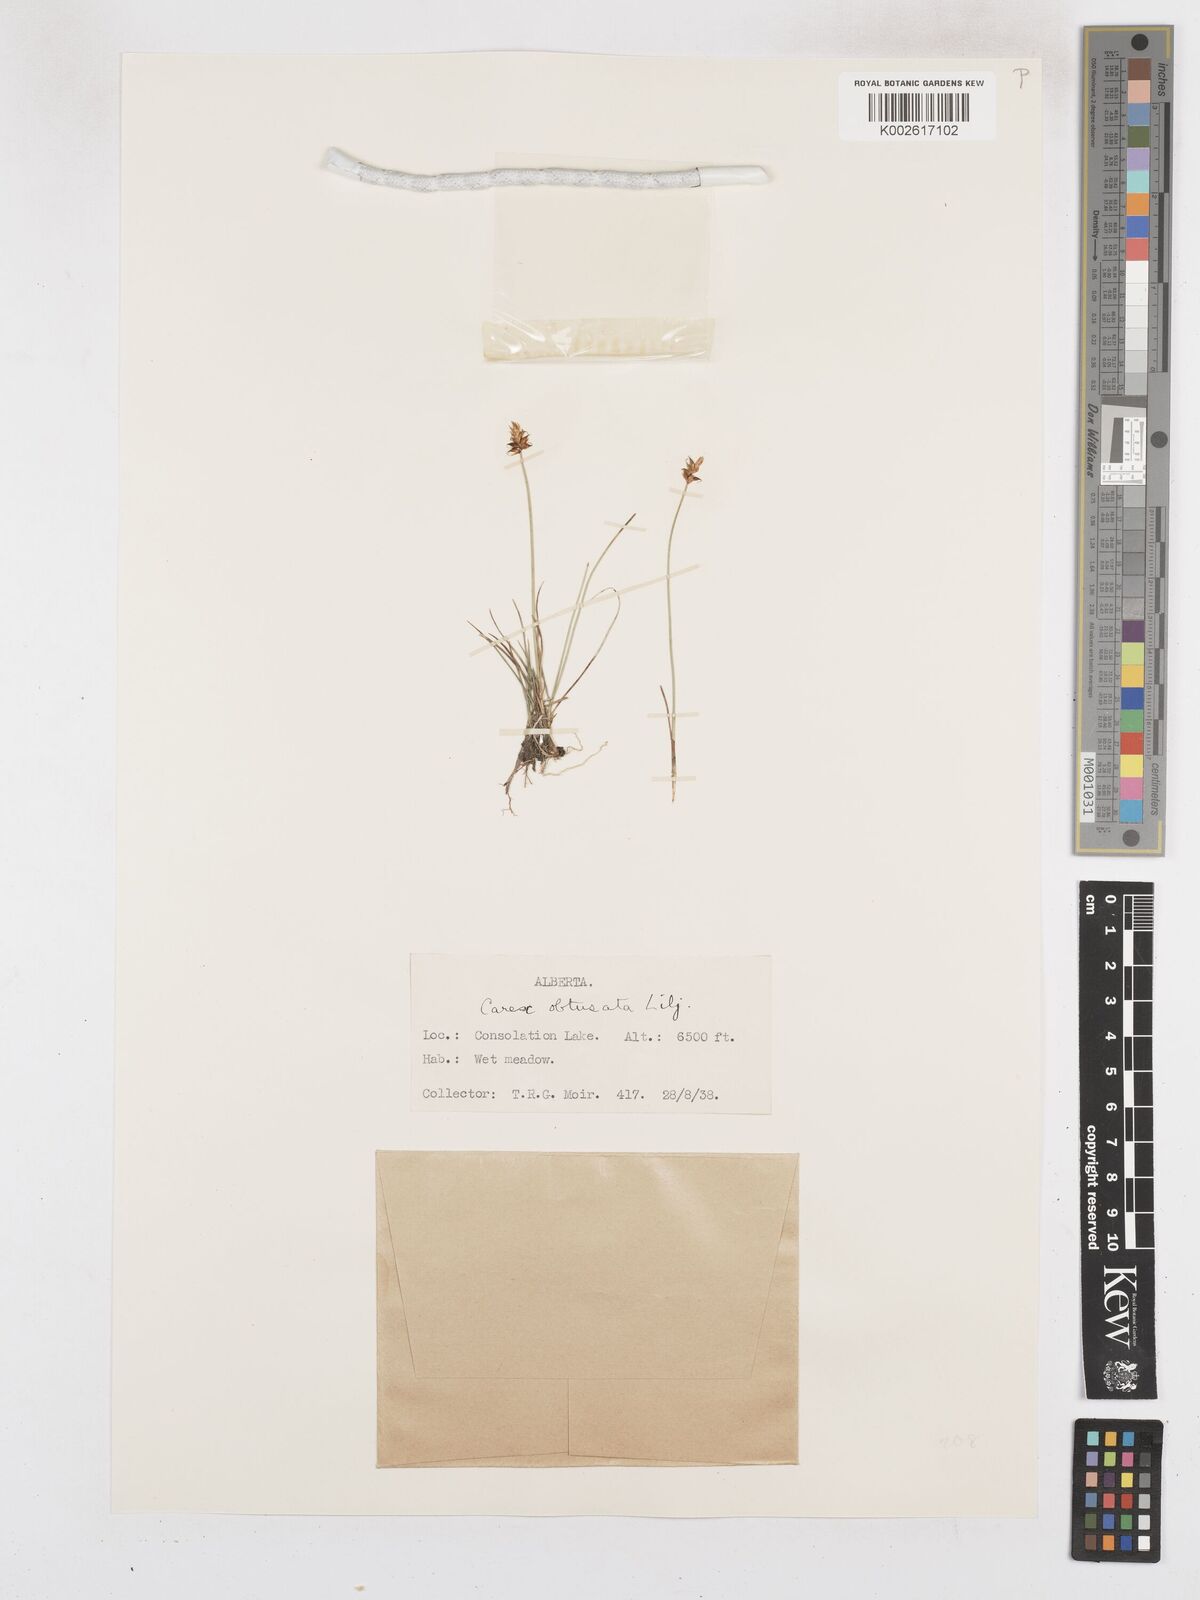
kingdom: Plantae
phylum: Tracheophyta
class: Liliopsida
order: Poales
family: Cyperaceae
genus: Carex
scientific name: Carex obtusata
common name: Blunt sedge
